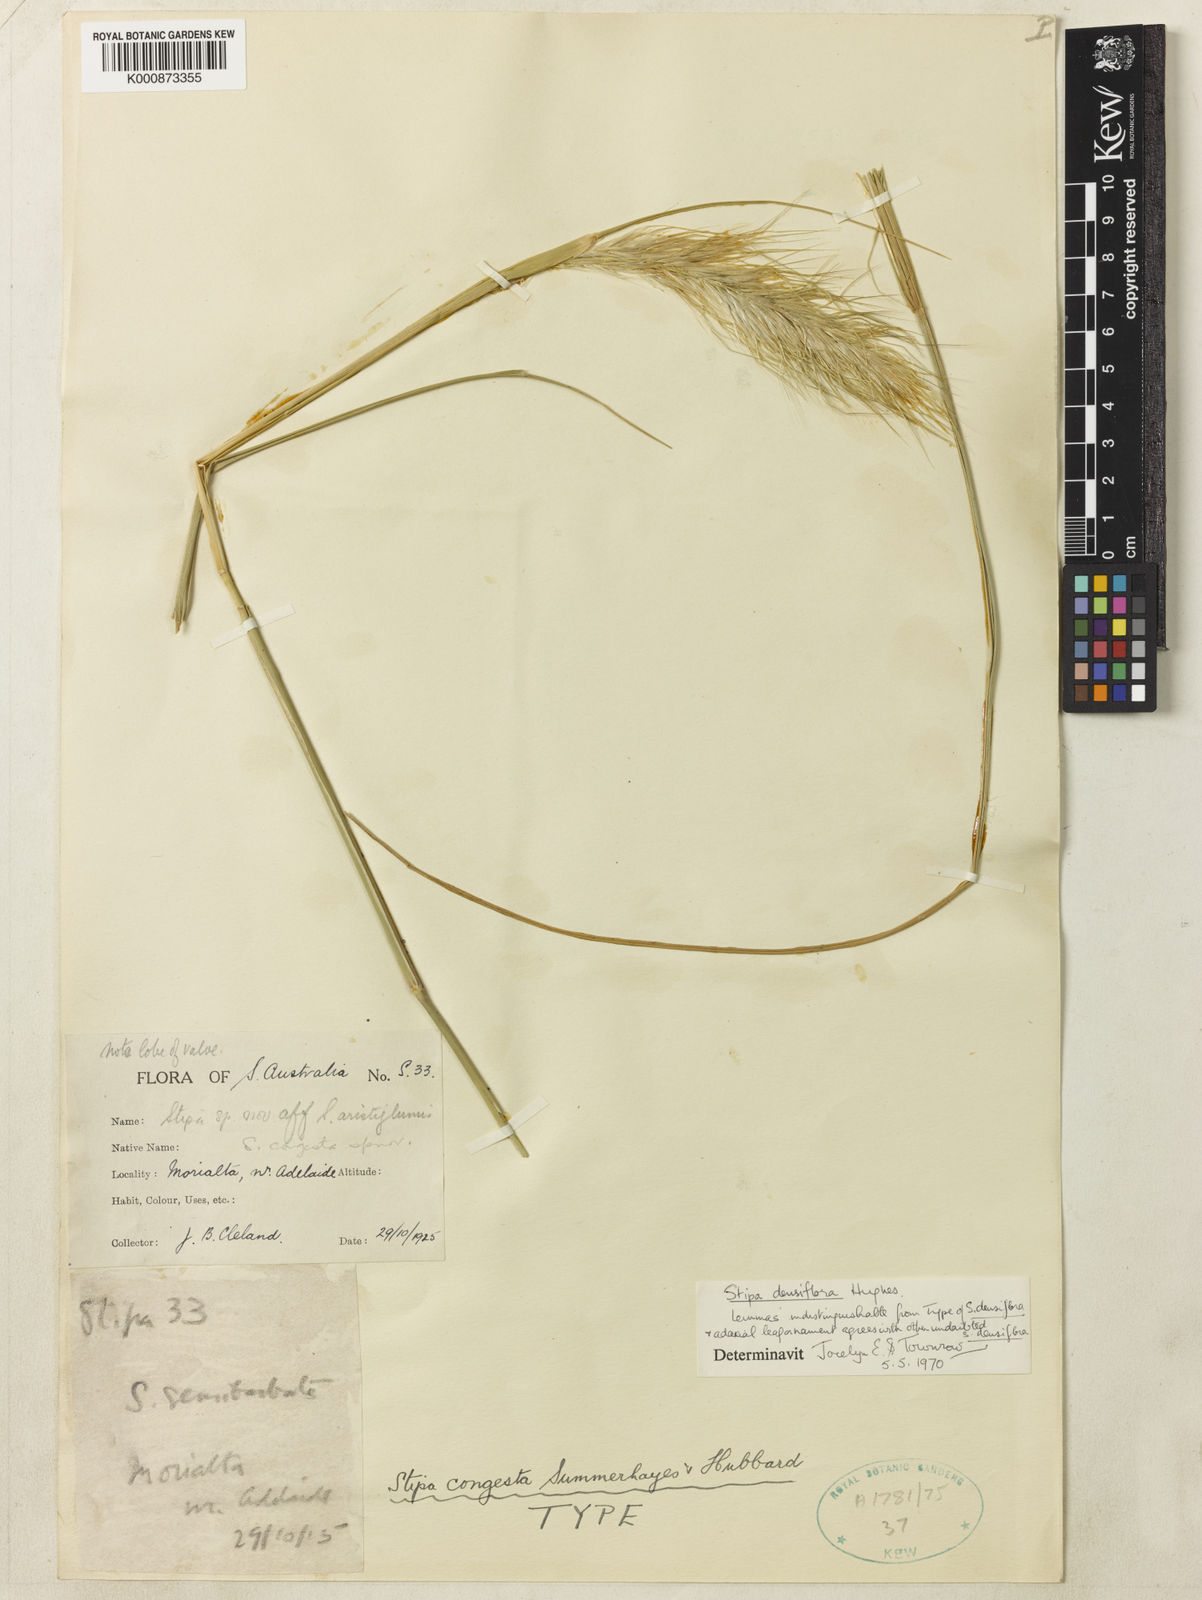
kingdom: Plantae
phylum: Tracheophyta
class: Liliopsida
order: Poales
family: Poaceae
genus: Austrostipa
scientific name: Austrostipa densiflora
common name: Foxtail spear grass
